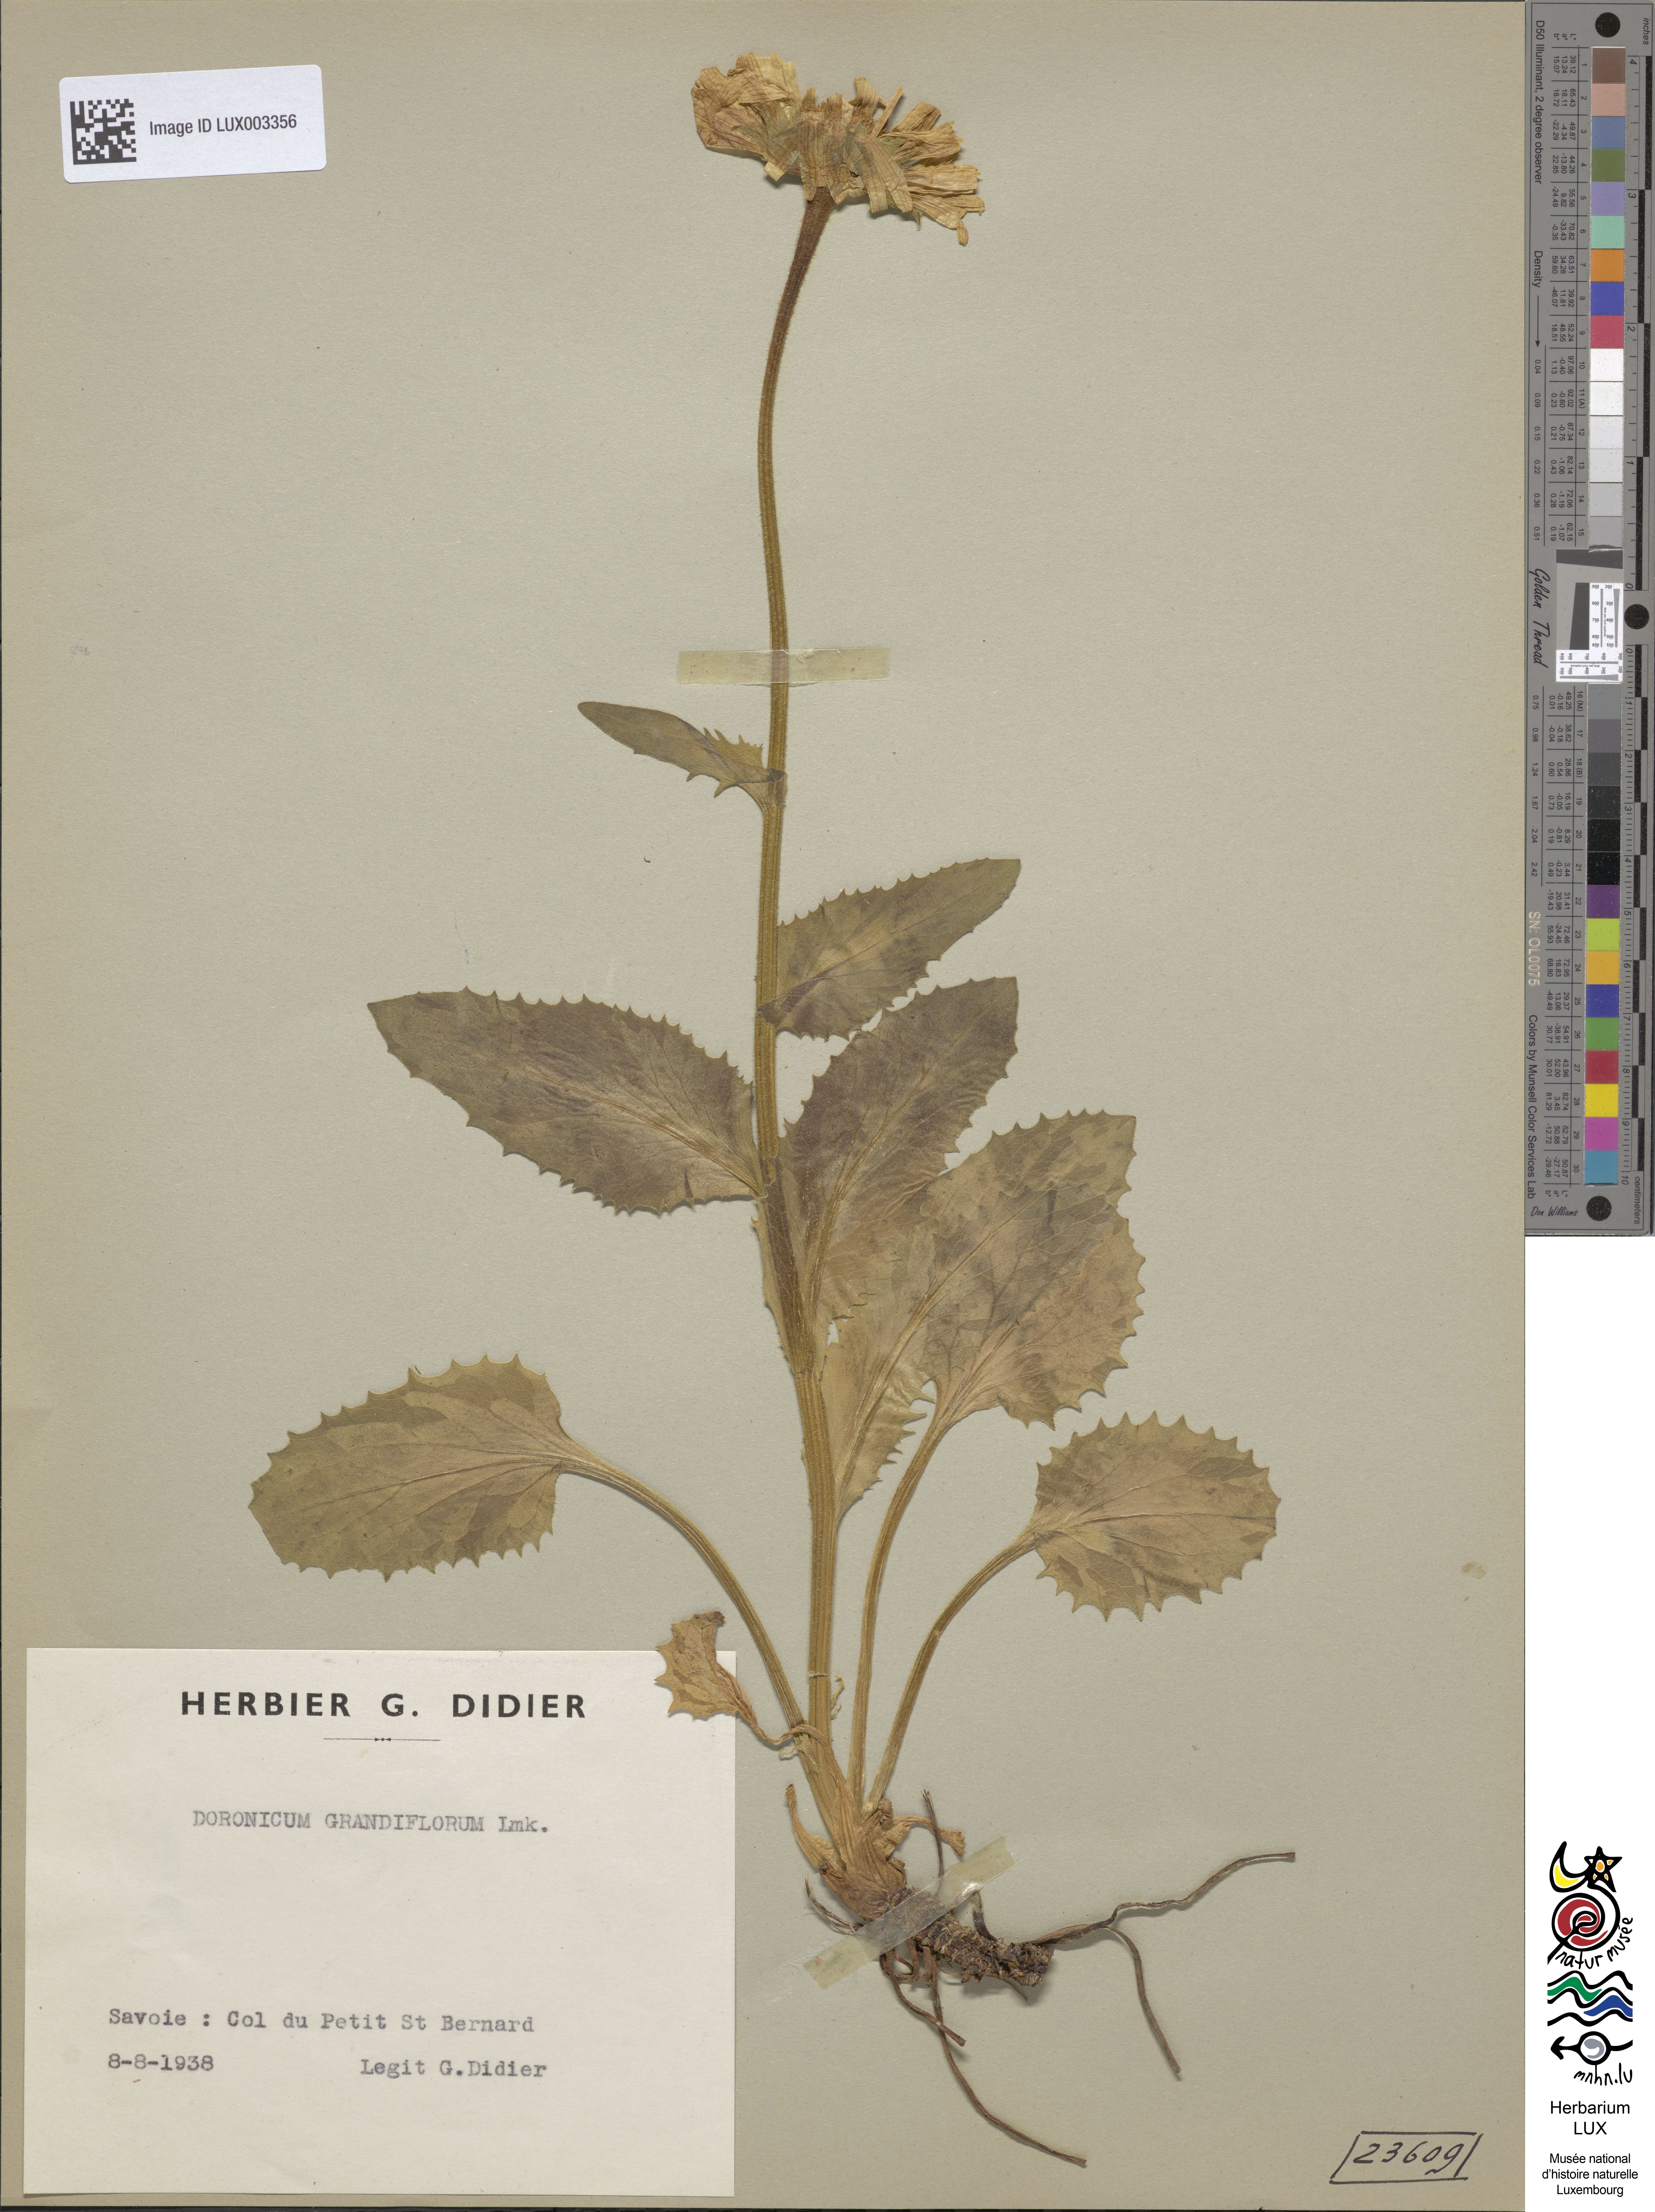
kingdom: Plantae
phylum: Tracheophyta
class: Magnoliopsida
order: Asterales
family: Asteraceae
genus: Doronicum
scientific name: Doronicum grandiflorum
